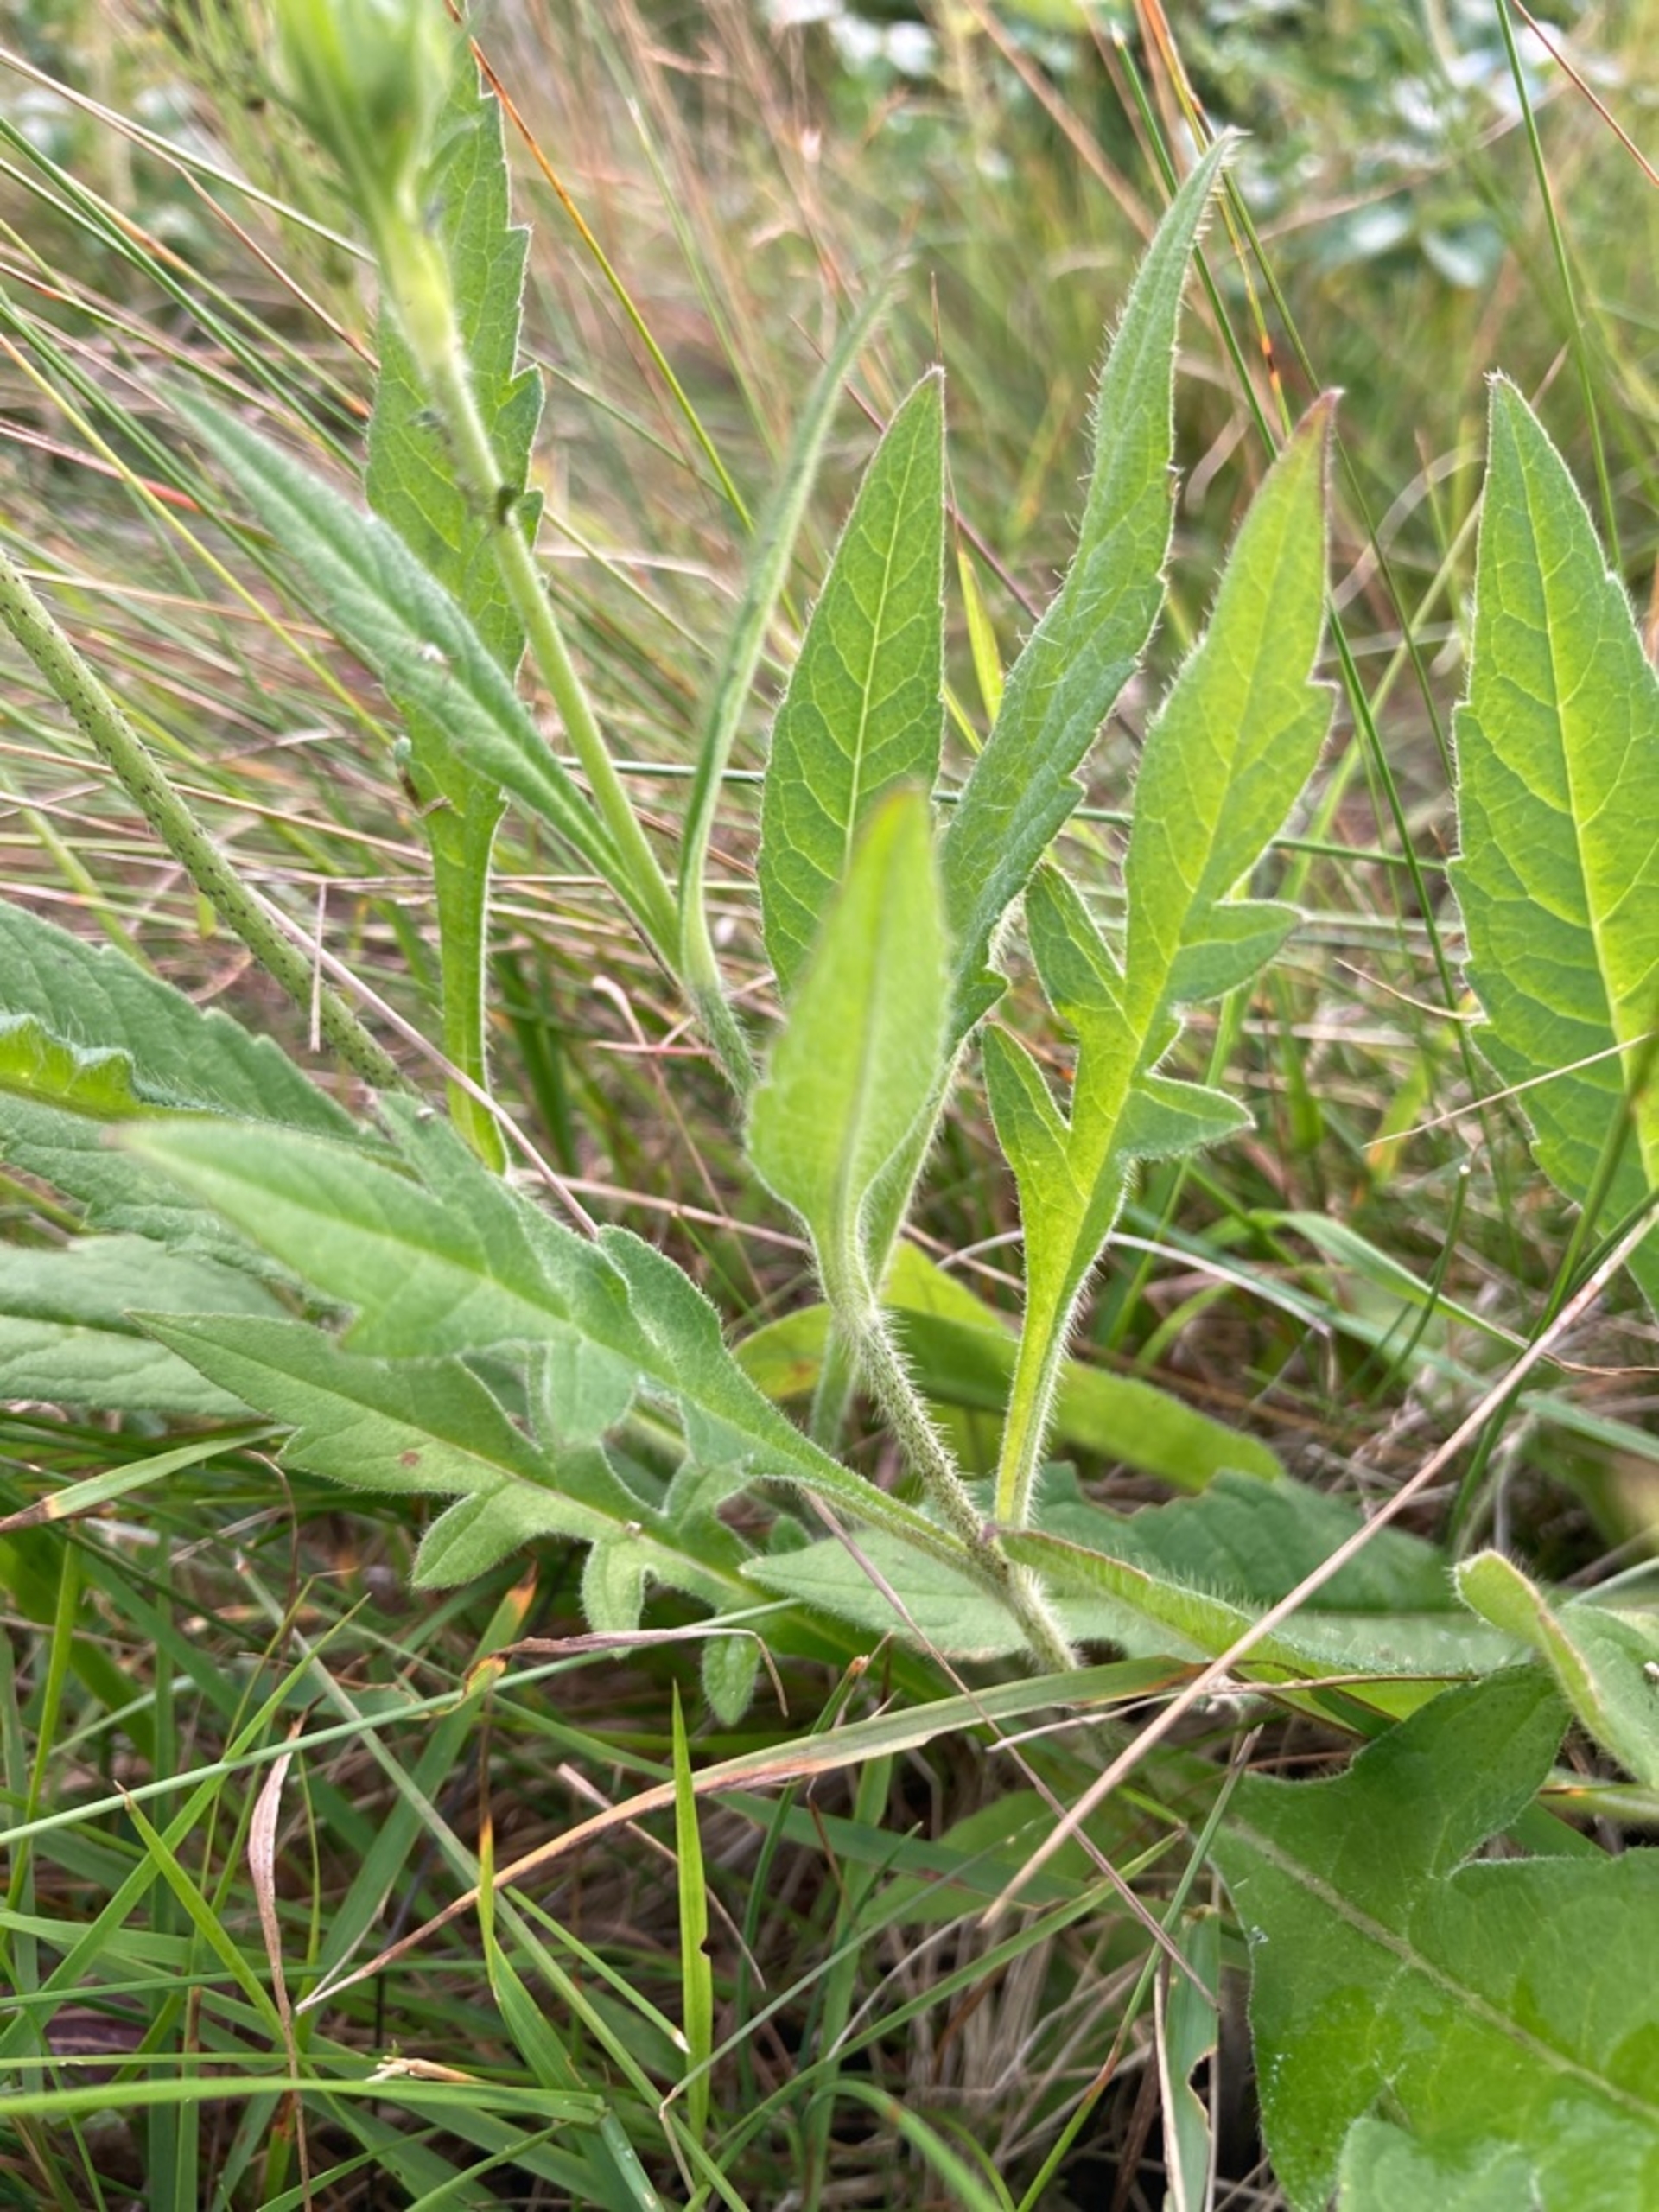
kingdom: Plantae
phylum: Tracheophyta
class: Magnoliopsida
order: Dipsacales
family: Caprifoliaceae
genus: Knautia
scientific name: Knautia arvensis
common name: Blåhat
